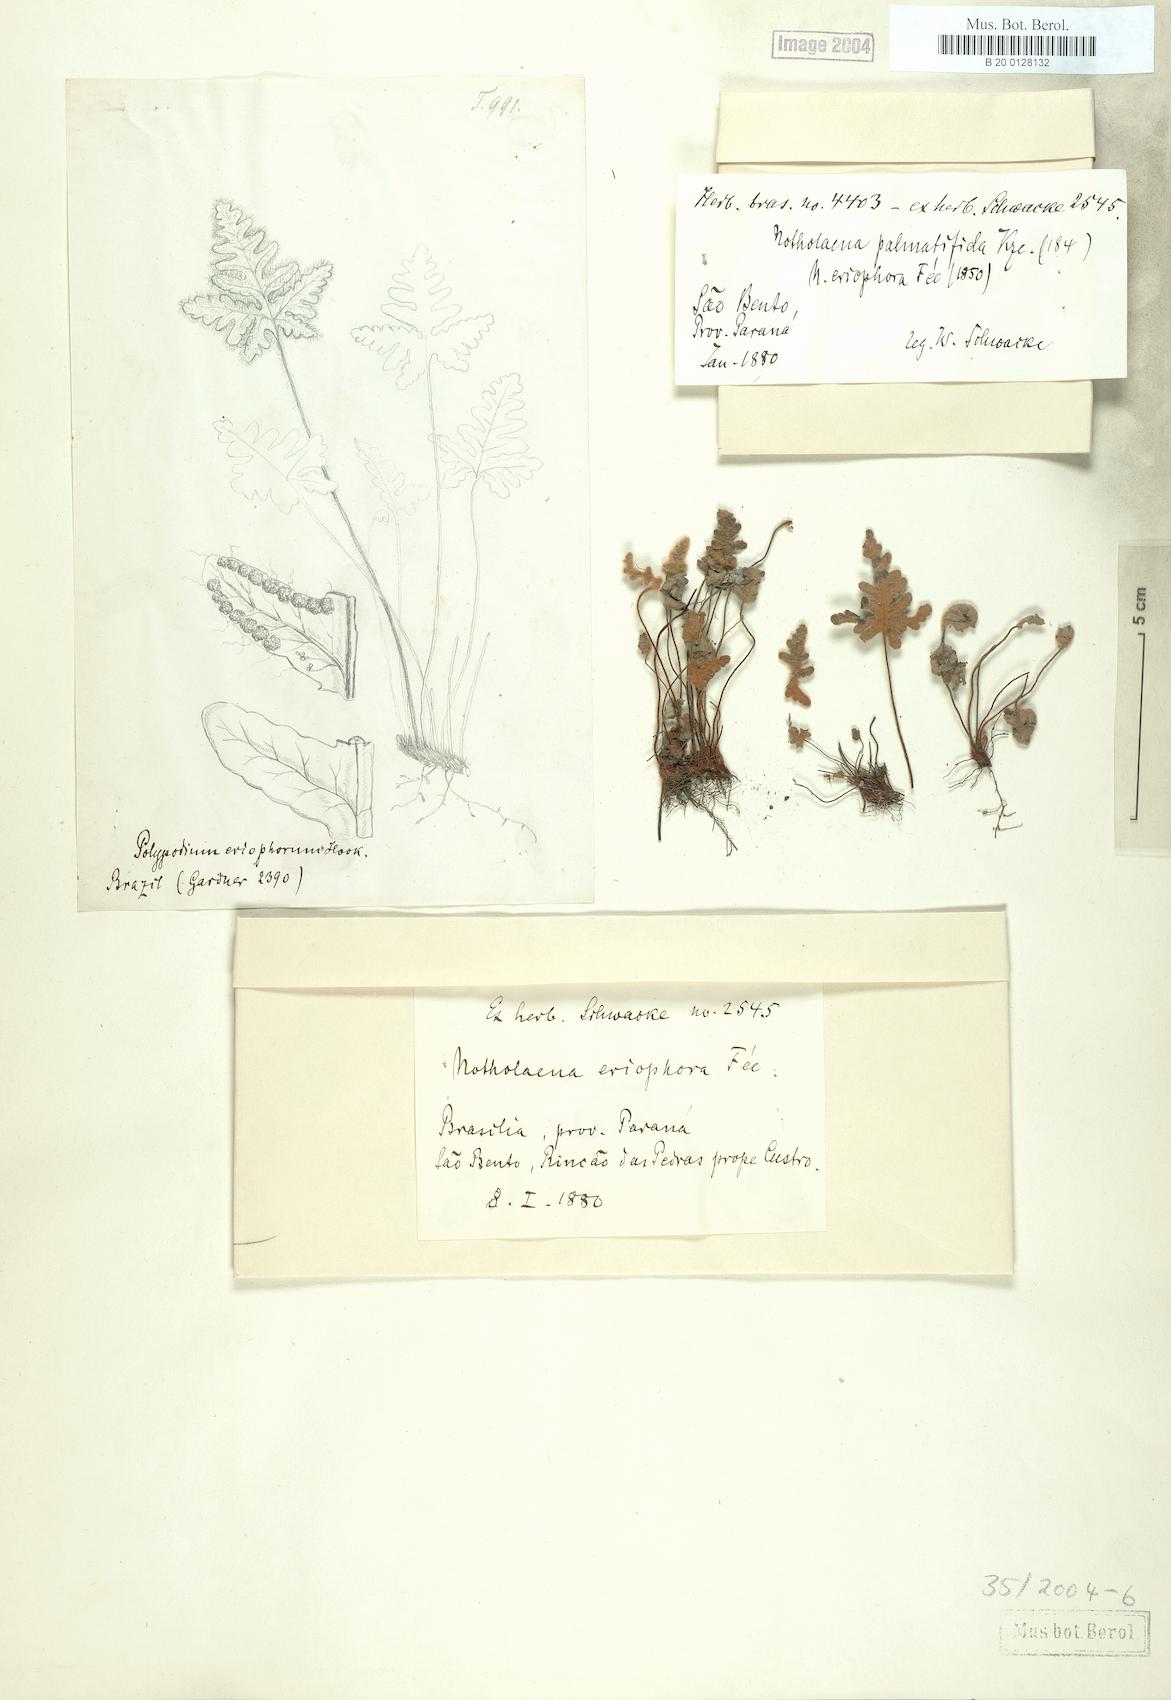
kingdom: Plantae
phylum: Tracheophyta
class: Polypodiopsida
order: Polypodiales
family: Pteridaceae
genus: Mineirella
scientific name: Mineirella eriophora
